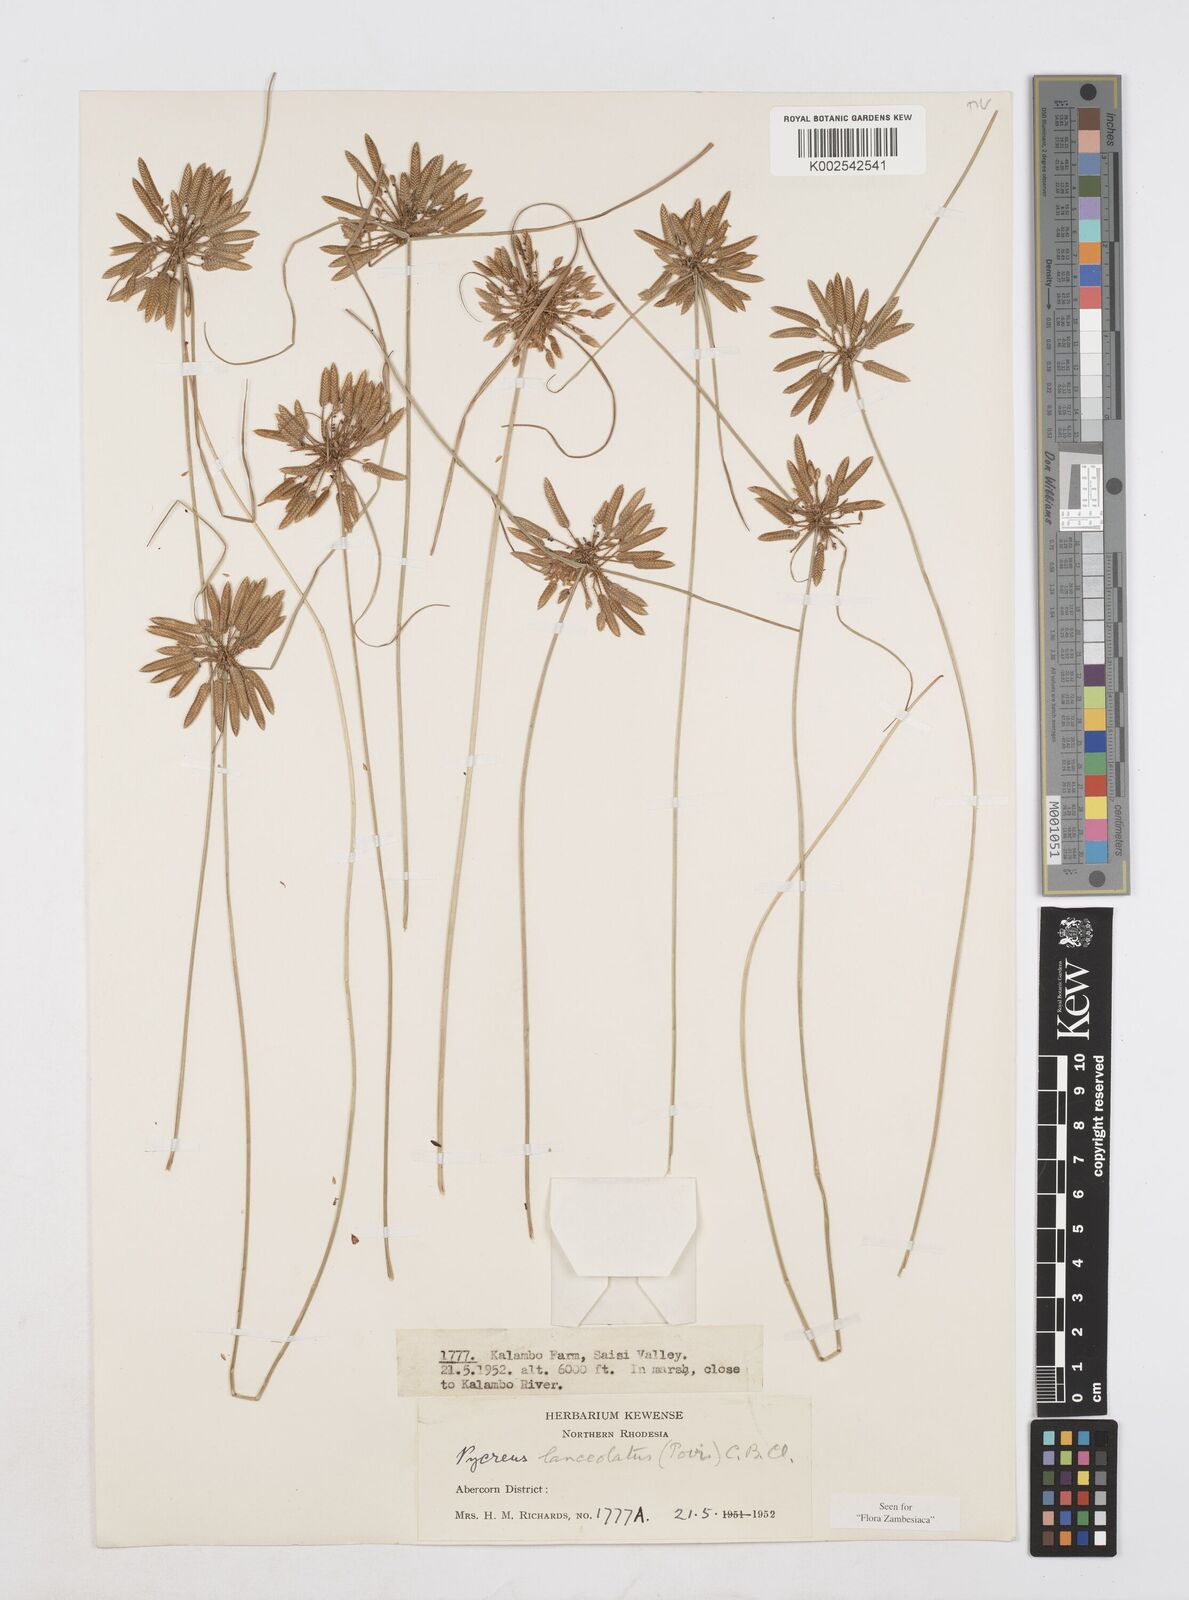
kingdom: Plantae
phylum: Tracheophyta
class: Liliopsida
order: Poales
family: Cyperaceae
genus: Cyperus
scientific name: Cyperus
